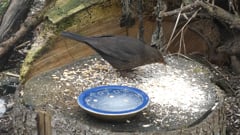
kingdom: Animalia
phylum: Chordata
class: Aves
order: Passeriformes
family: Turdidae
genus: Turdus
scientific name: Turdus merula
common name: Common blackbird
